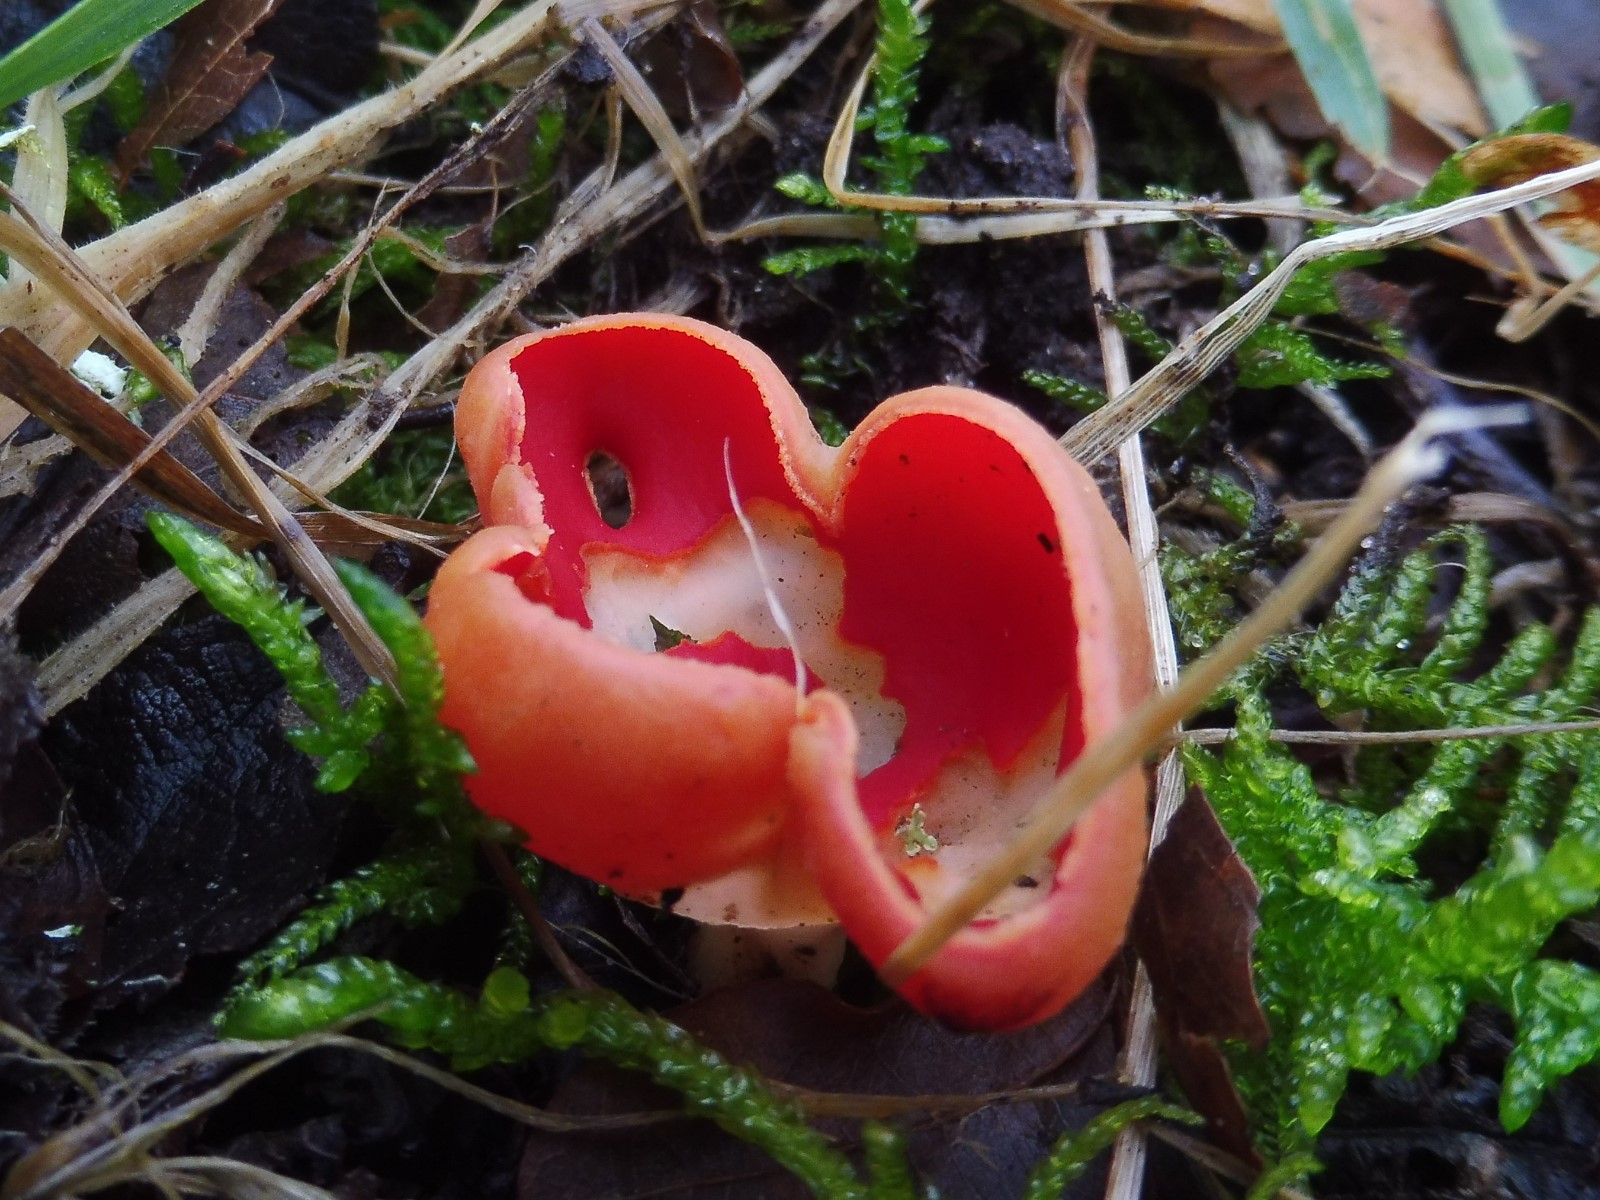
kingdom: Fungi
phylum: Ascomycota
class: Pezizomycetes
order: Pezizales
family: Sarcoscyphaceae
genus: Sarcoscypha
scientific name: Sarcoscypha austriaca
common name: krølhåret pragtbæger
